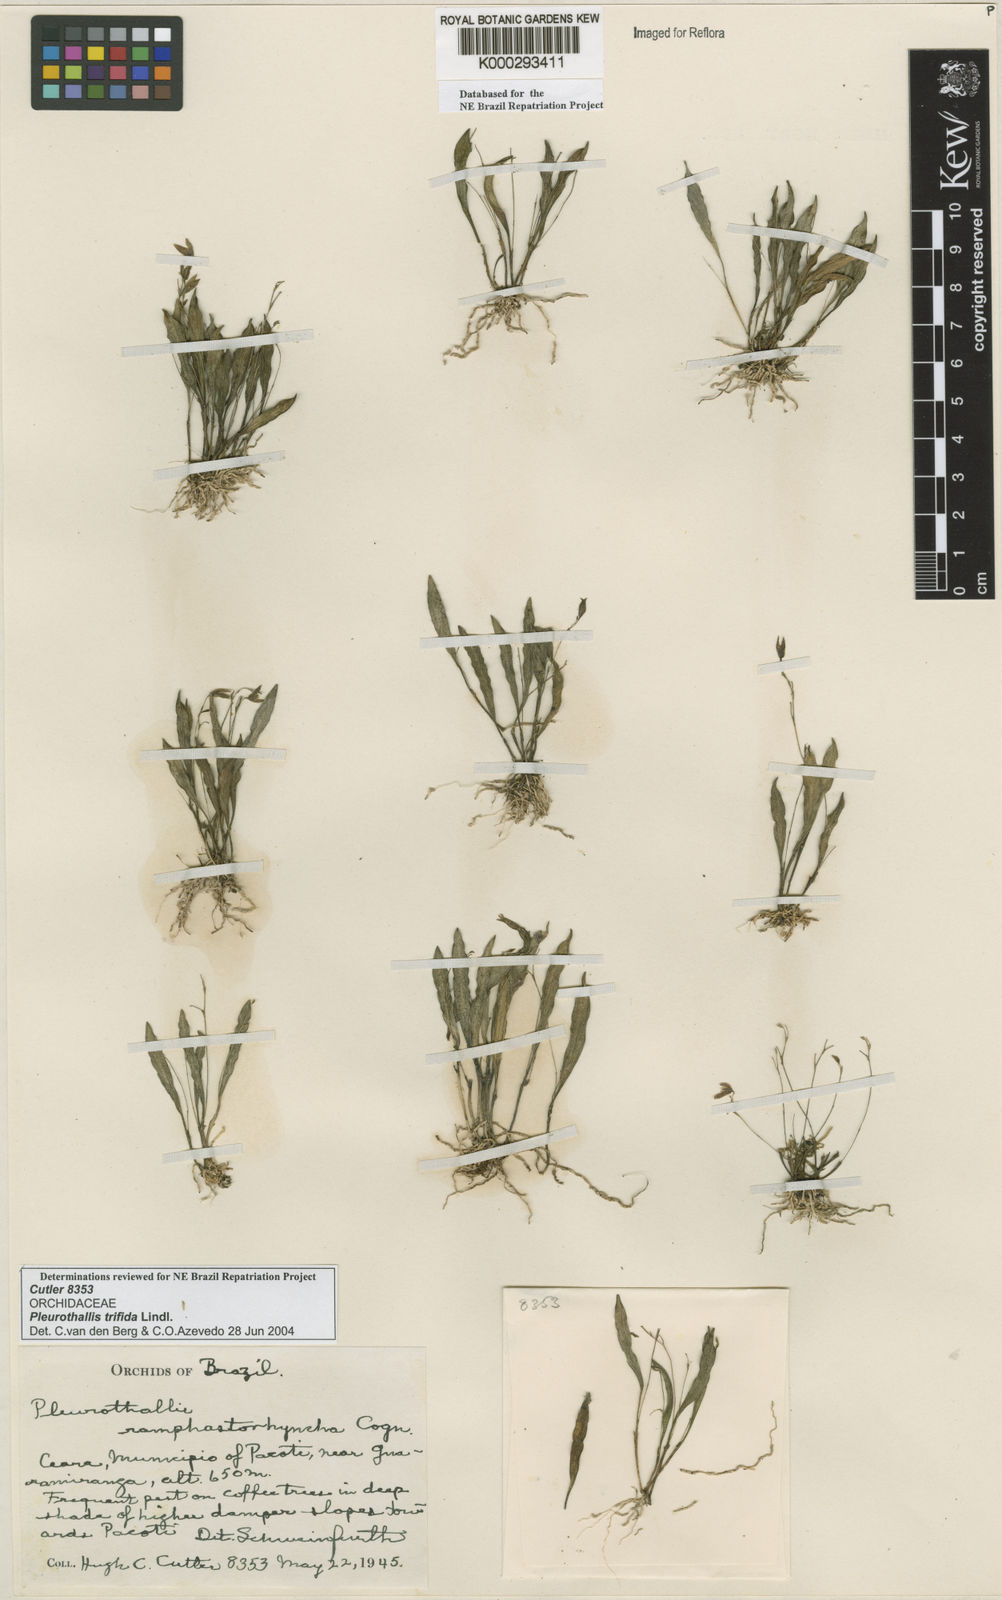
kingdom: Plantae
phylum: Tracheophyta
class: Liliopsida
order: Asparagales
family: Orchidaceae
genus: Pabstiella
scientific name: Pabstiella trifida
